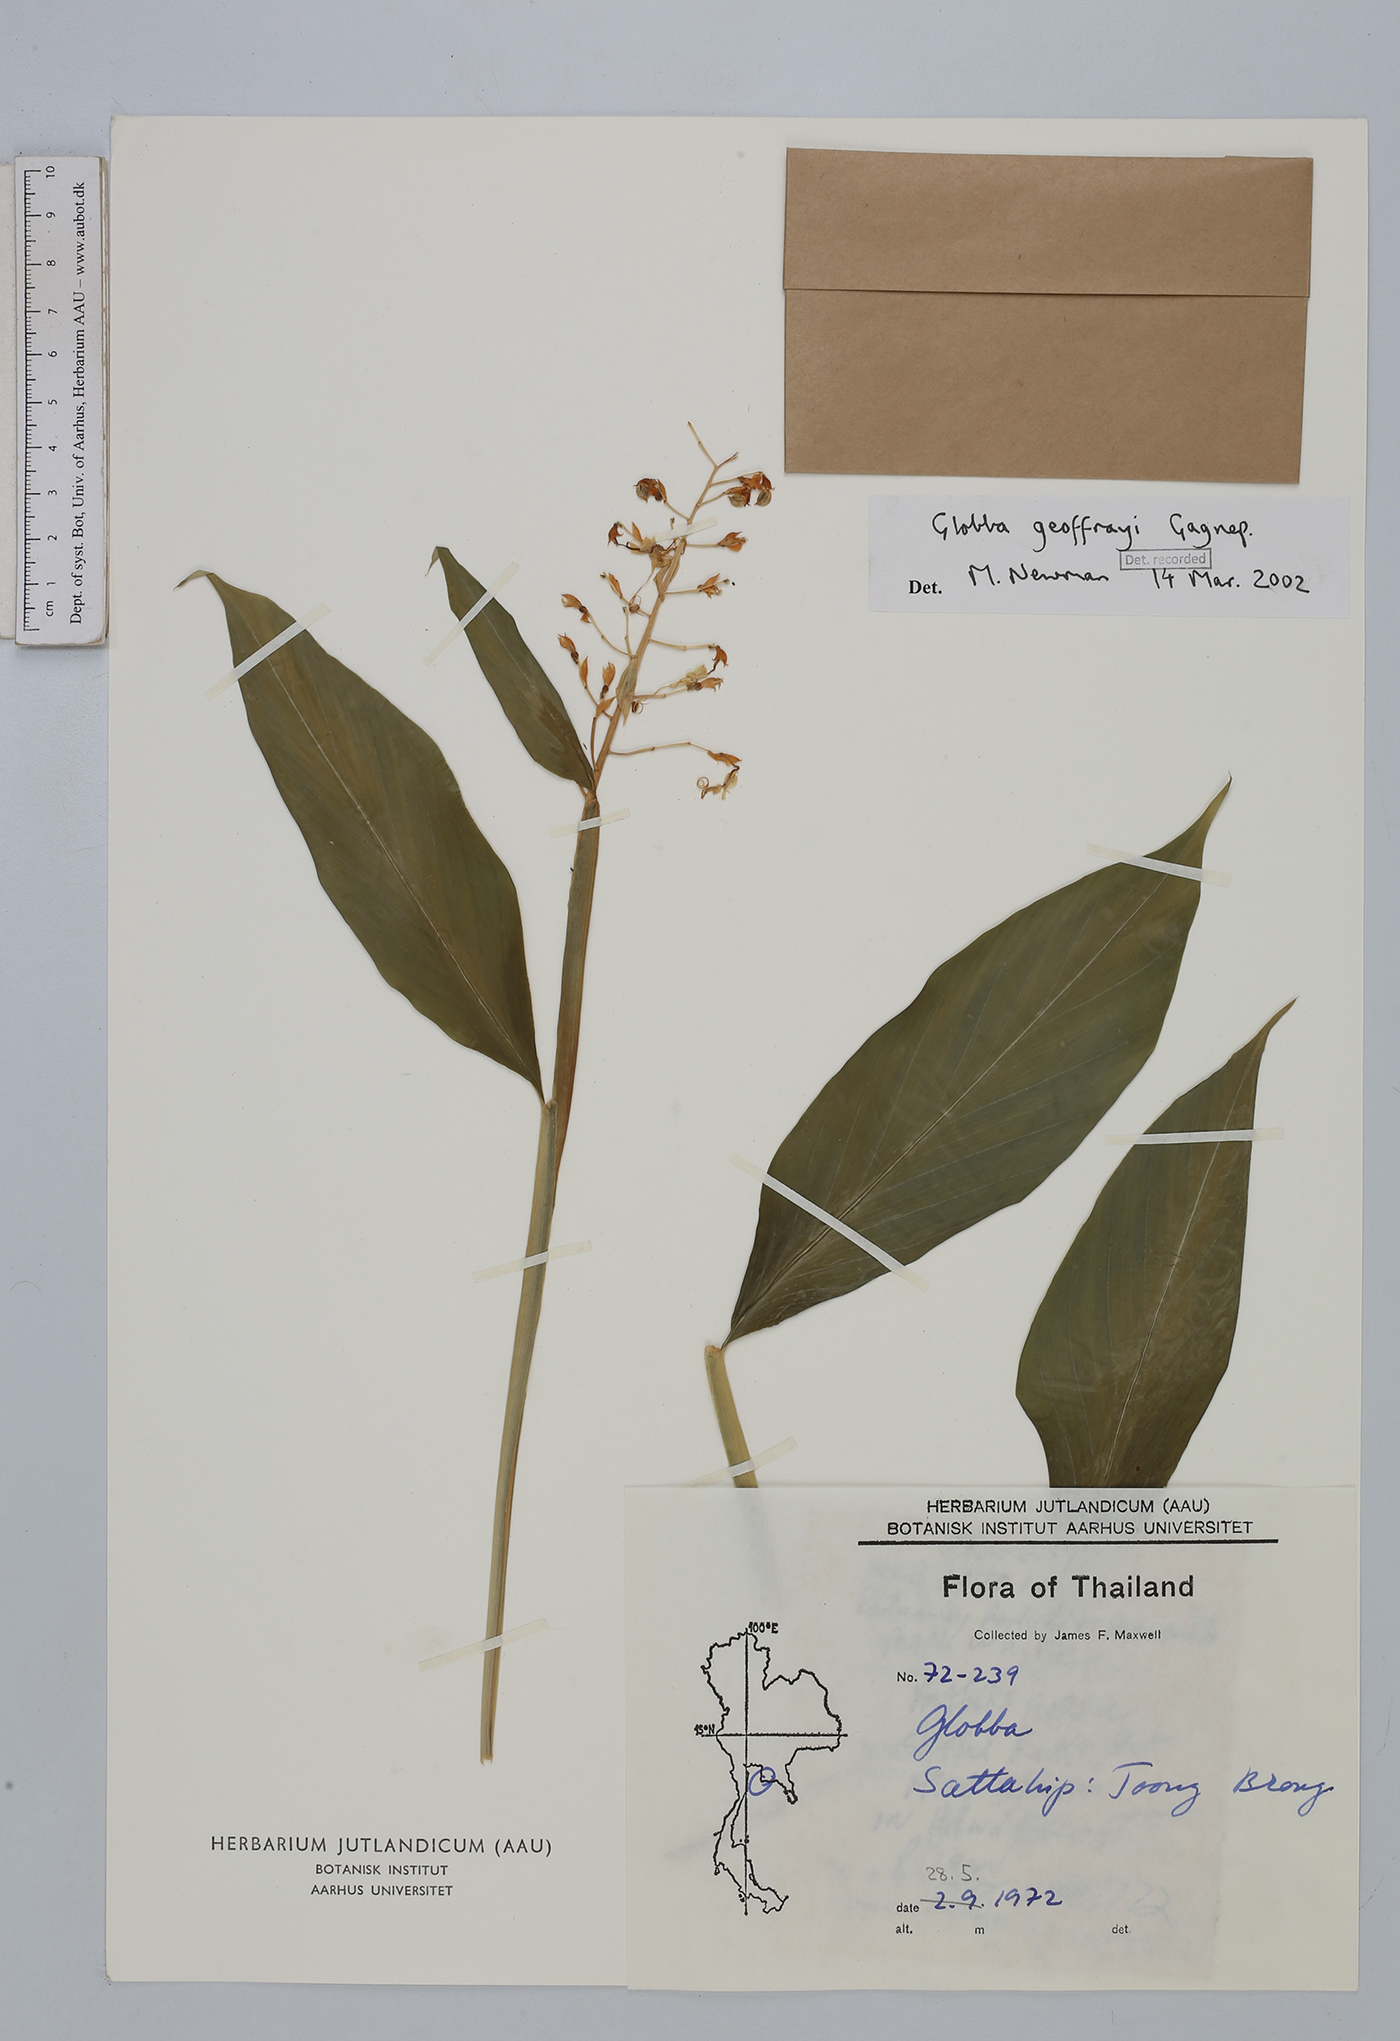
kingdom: Plantae
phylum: Tracheophyta
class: Liliopsida
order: Zingiberales
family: Zingiberaceae
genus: Globba
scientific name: Globba geoffrayi
